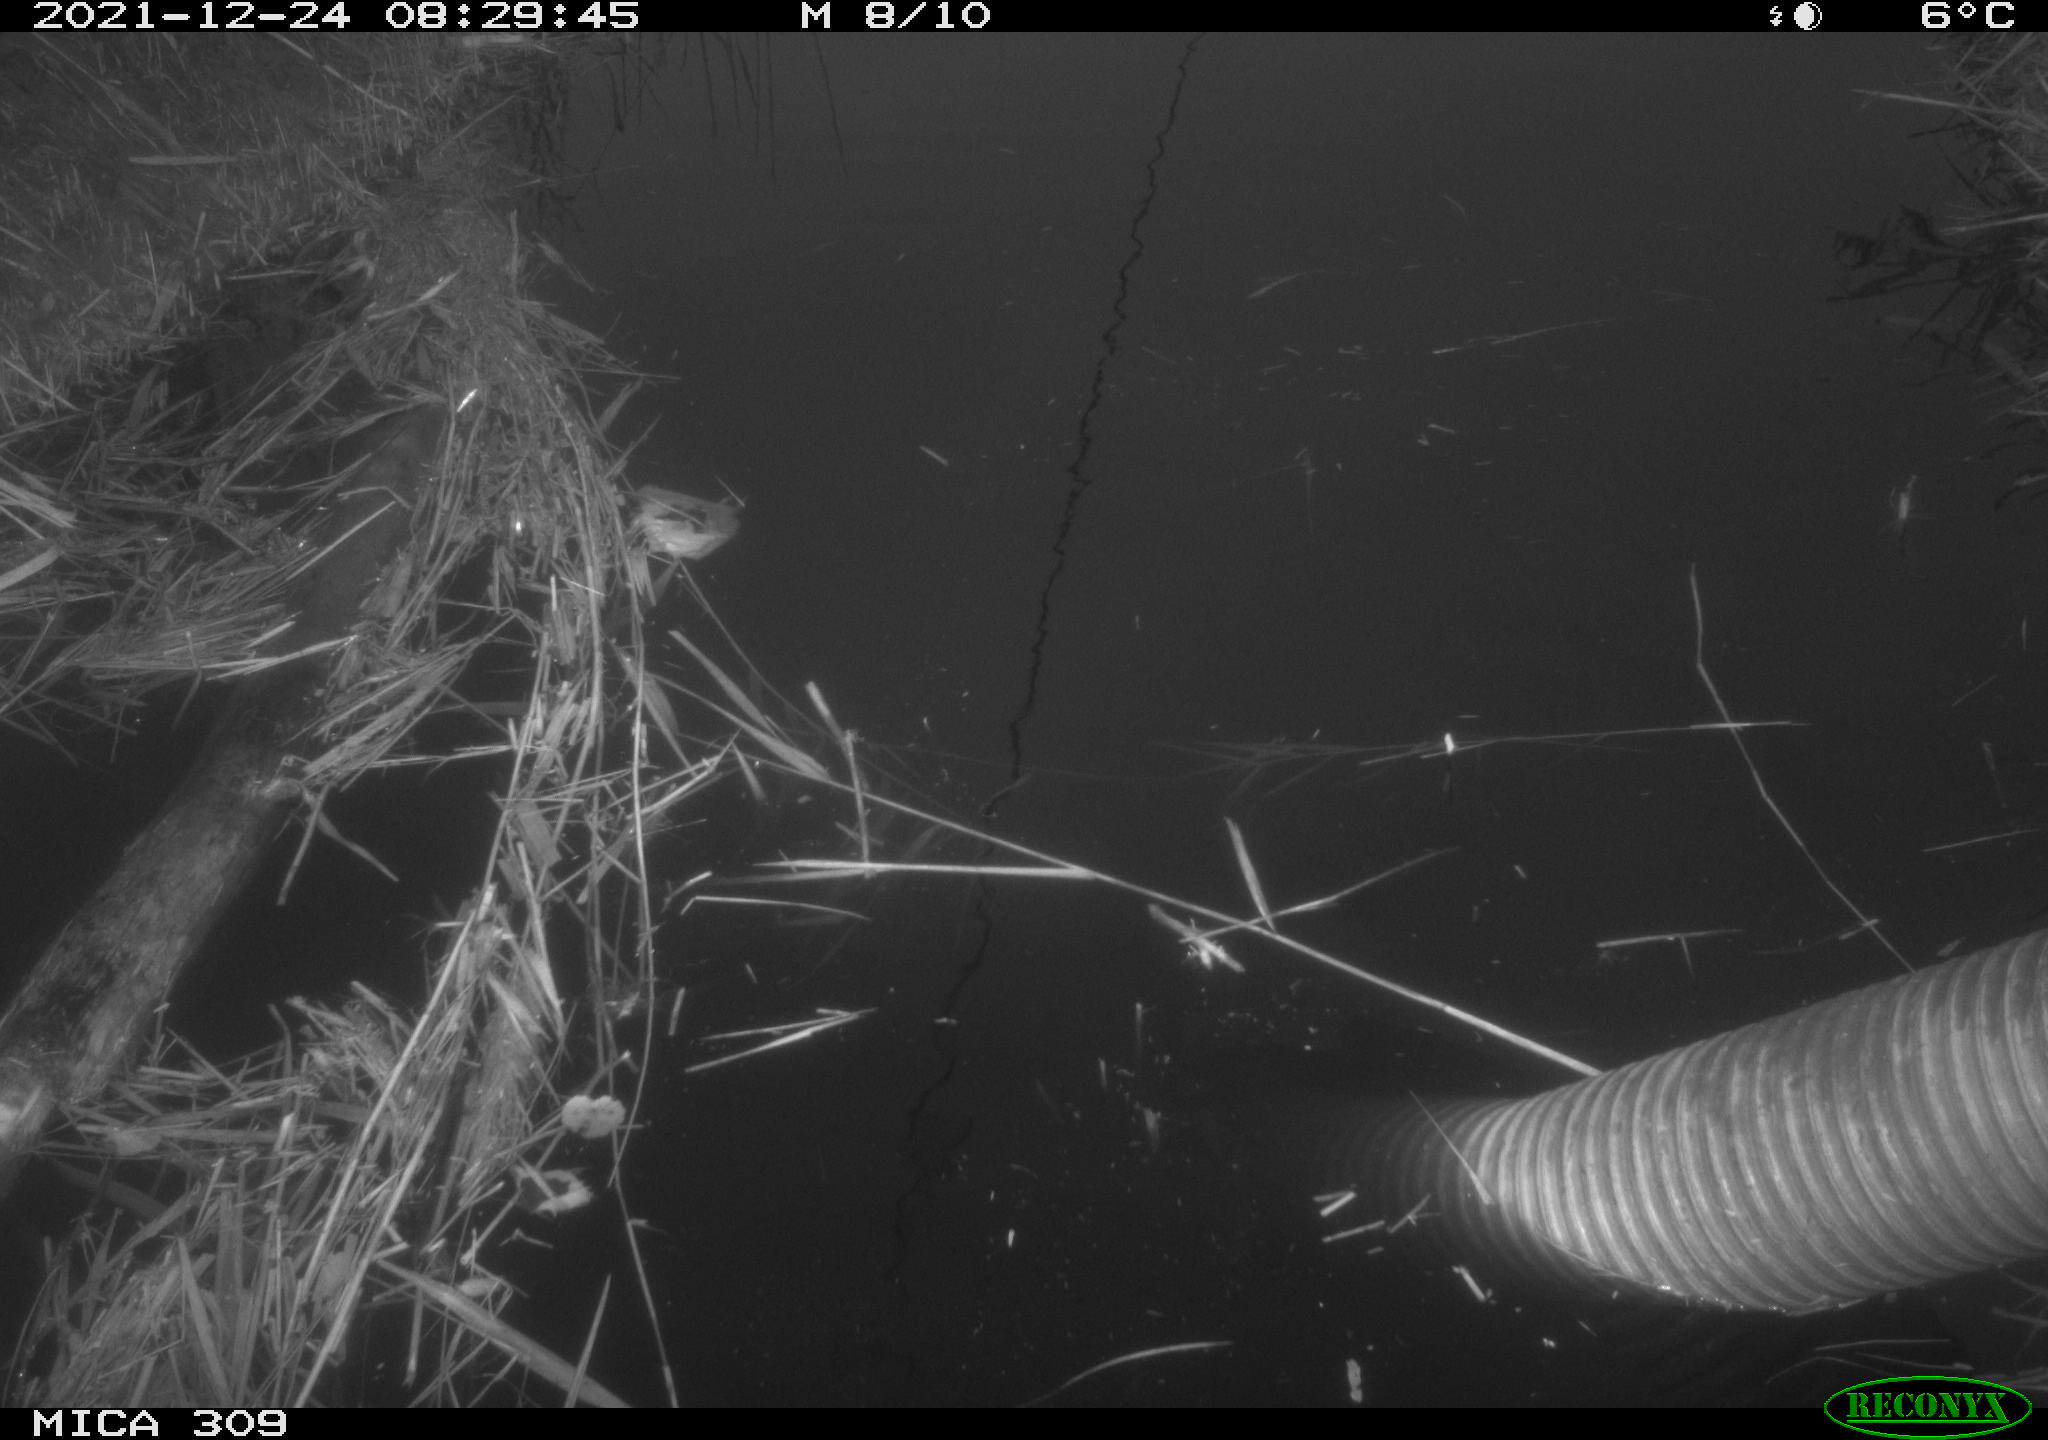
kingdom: Animalia
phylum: Chordata
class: Aves
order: Gruiformes
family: Rallidae
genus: Gallinula
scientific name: Gallinula chloropus
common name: Common moorhen
